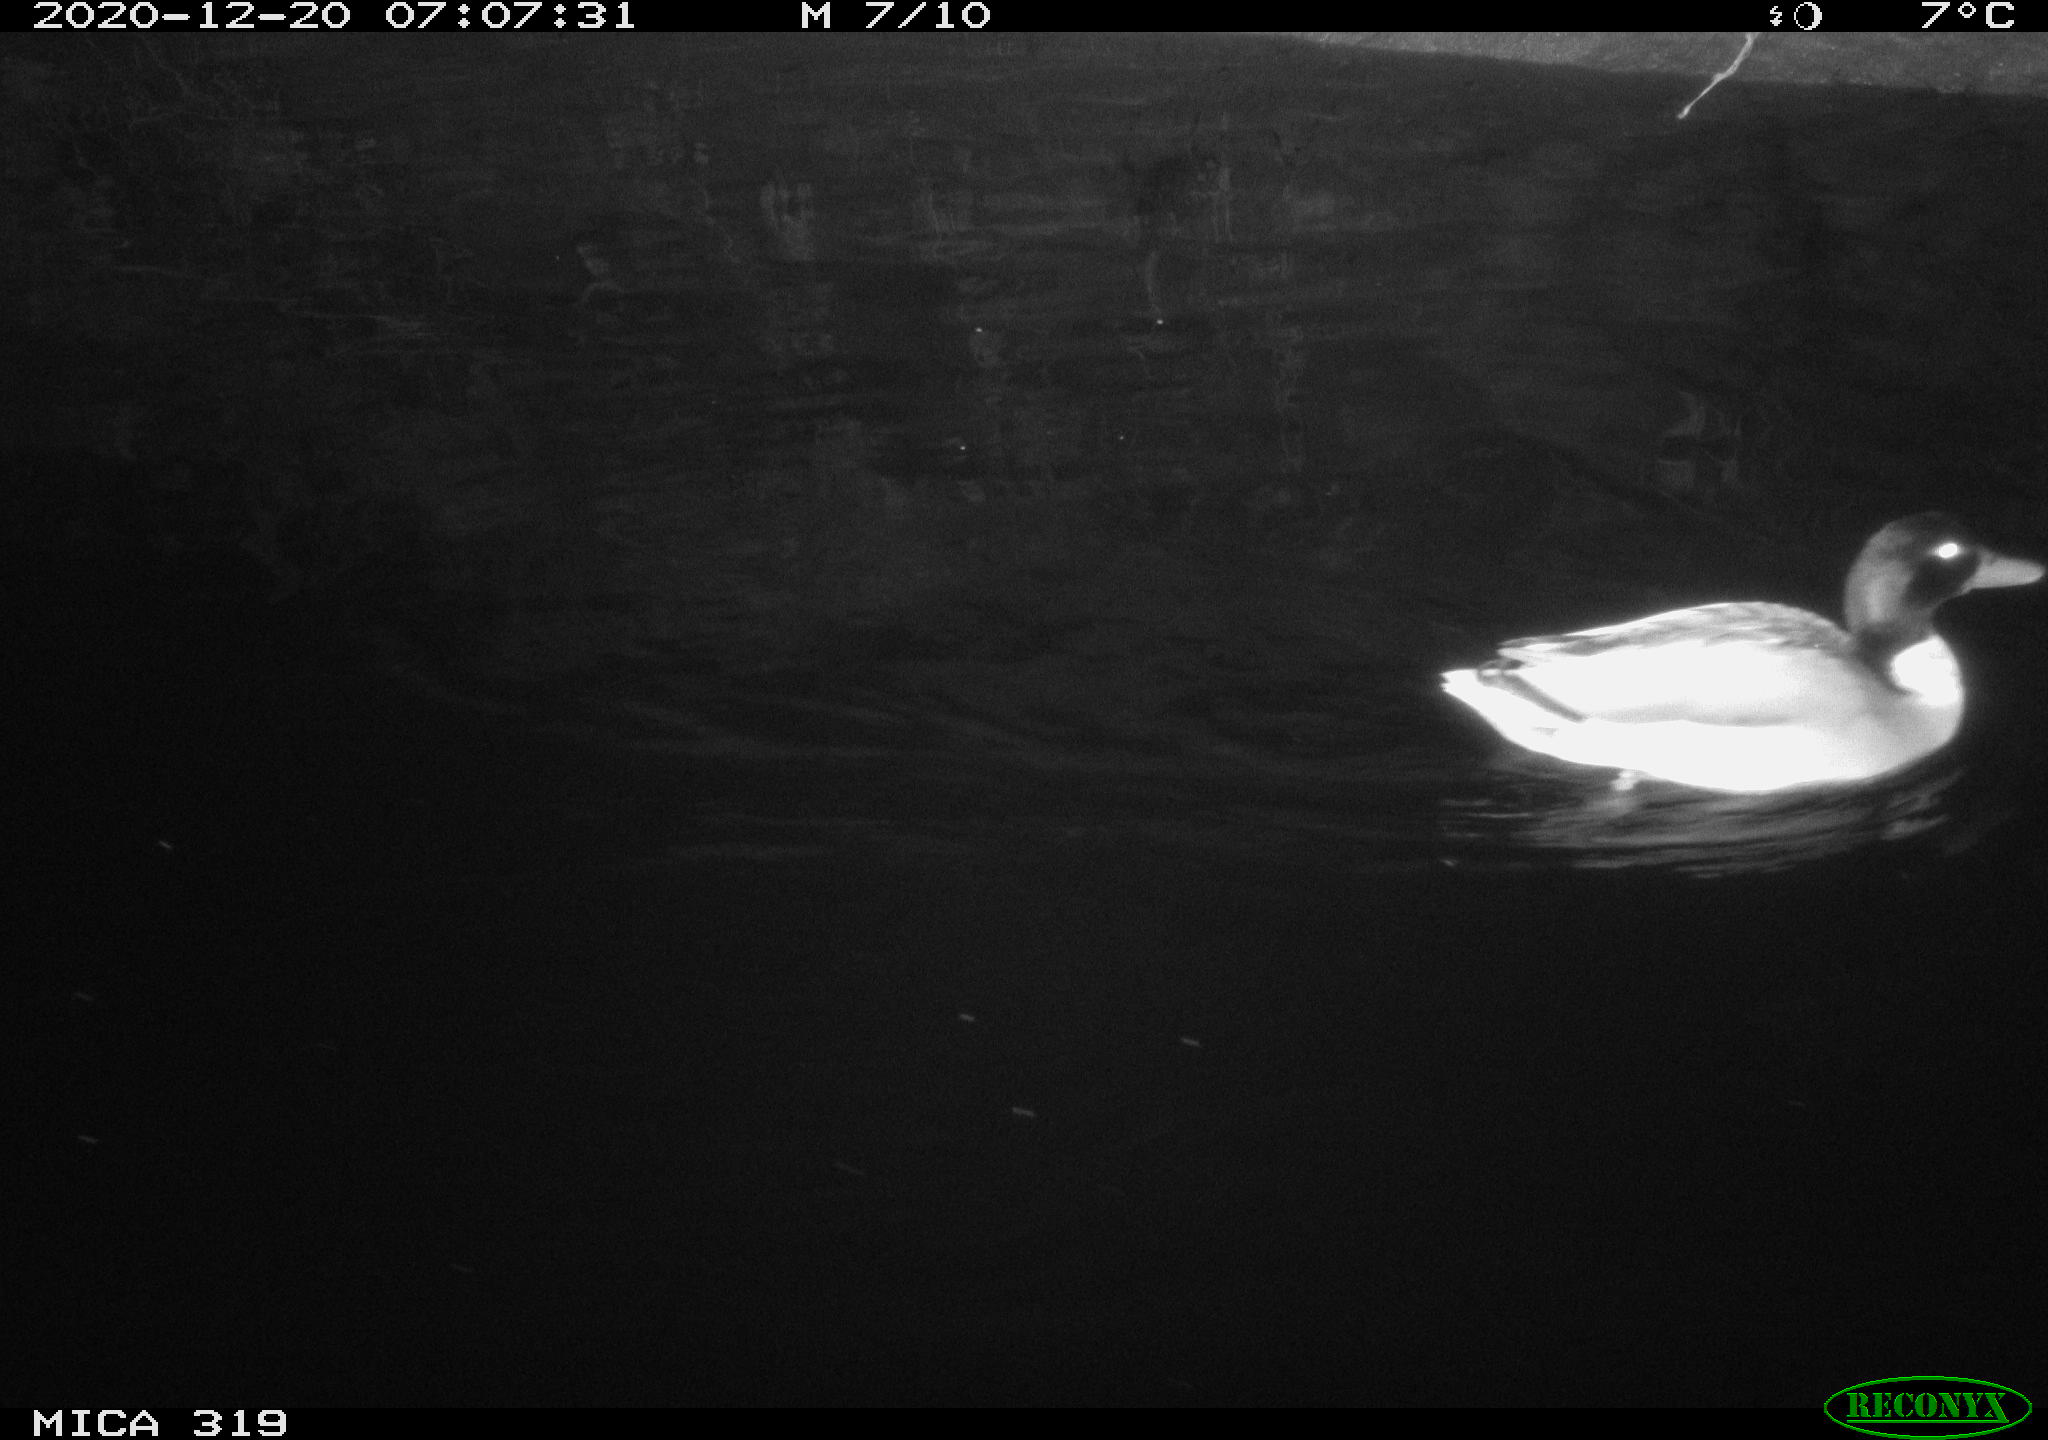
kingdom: Animalia
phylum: Chordata
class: Aves
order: Anseriformes
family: Anatidae
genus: Anas
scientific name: Anas platyrhynchos
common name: Mallard
